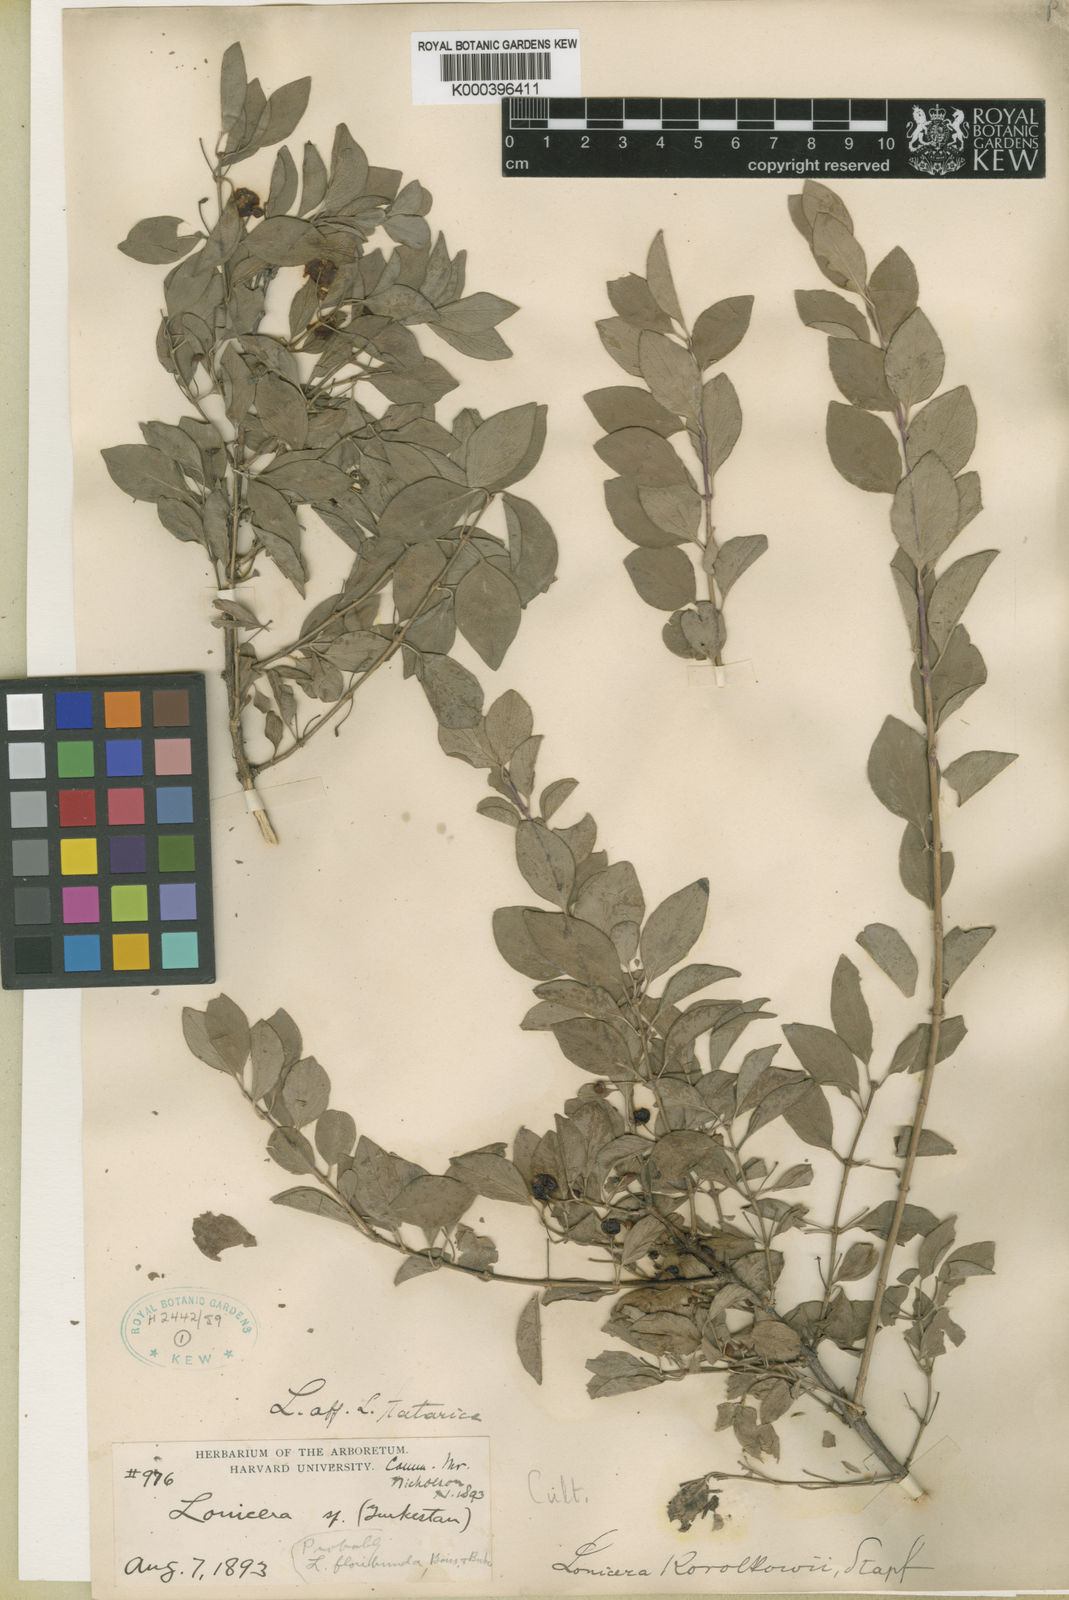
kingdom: Plantae
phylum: Tracheophyta
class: Magnoliopsida
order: Dipsacales
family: Caprifoliaceae
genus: Lonicera
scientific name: Lonicera korolkowii
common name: Blueleaf honeysuckle
